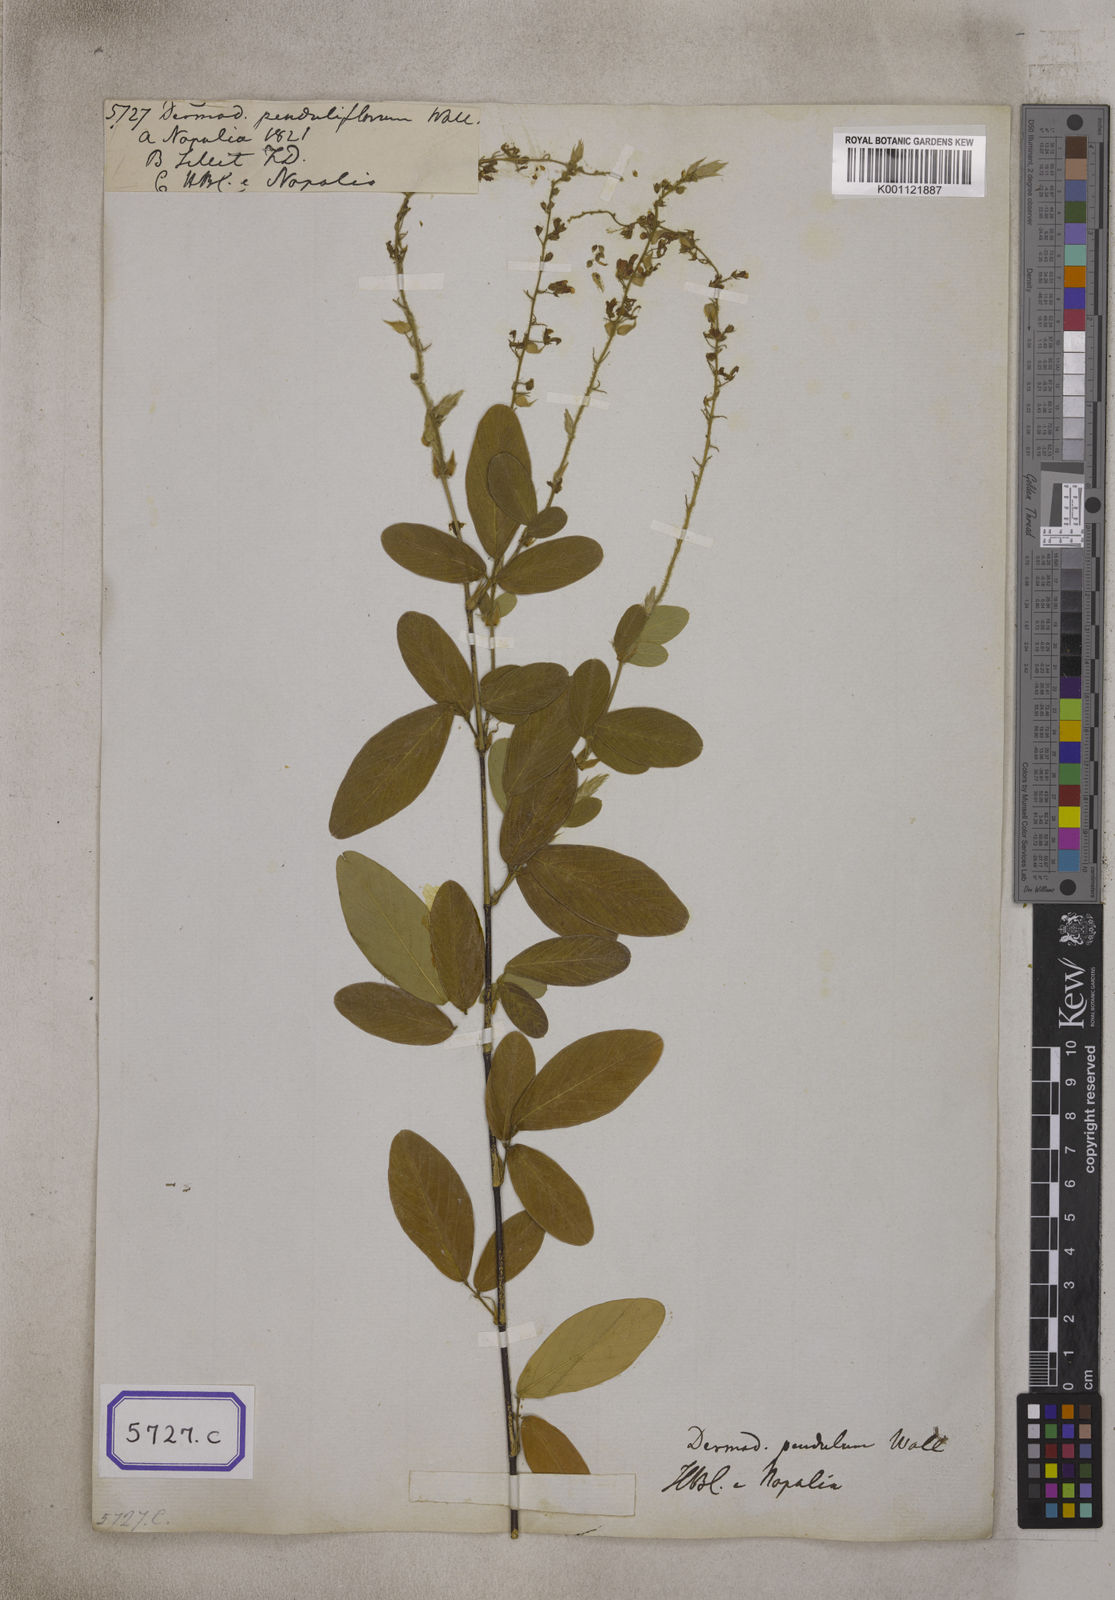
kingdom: Plantae
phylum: Tracheophyta
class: Magnoliopsida
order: Fabales
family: Fabaceae
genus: Tateishia
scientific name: Tateishia concinna
